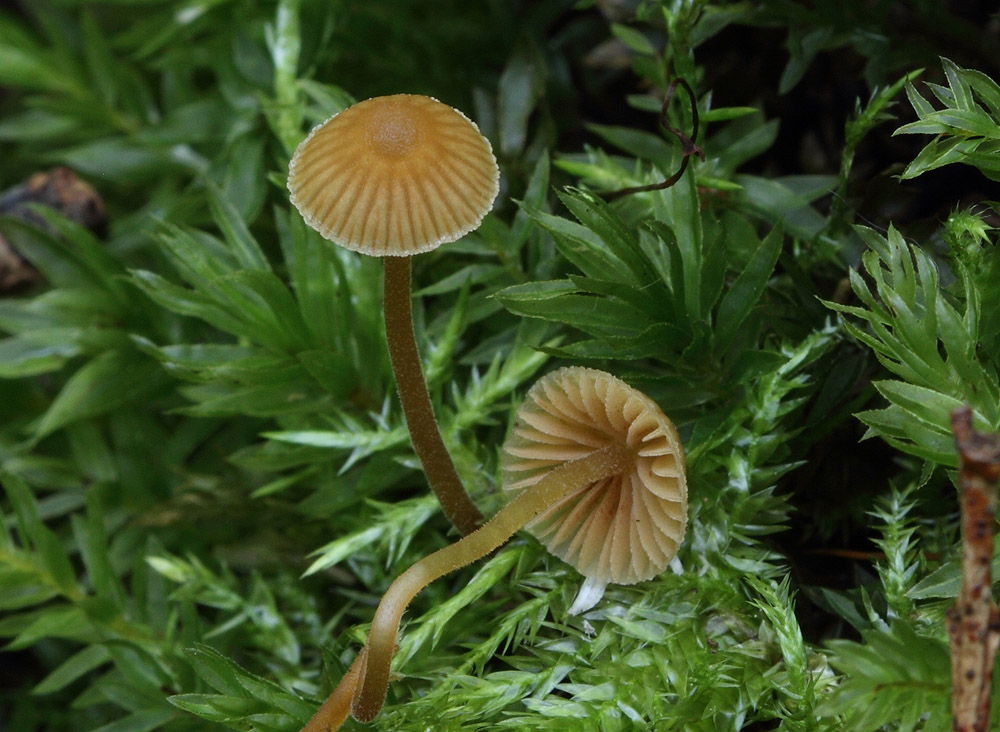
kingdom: Fungi
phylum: Basidiomycota
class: Agaricomycetes
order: Agaricales
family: Hymenogastraceae
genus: Galerina
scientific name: Galerina atkinsoniana
